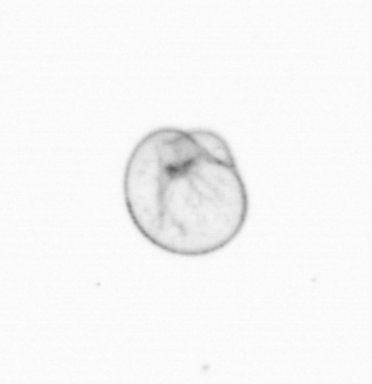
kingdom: Chromista
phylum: Myzozoa
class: Dinophyceae
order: Noctilucales
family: Noctilucaceae
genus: Noctiluca
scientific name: Noctiluca scintillans
